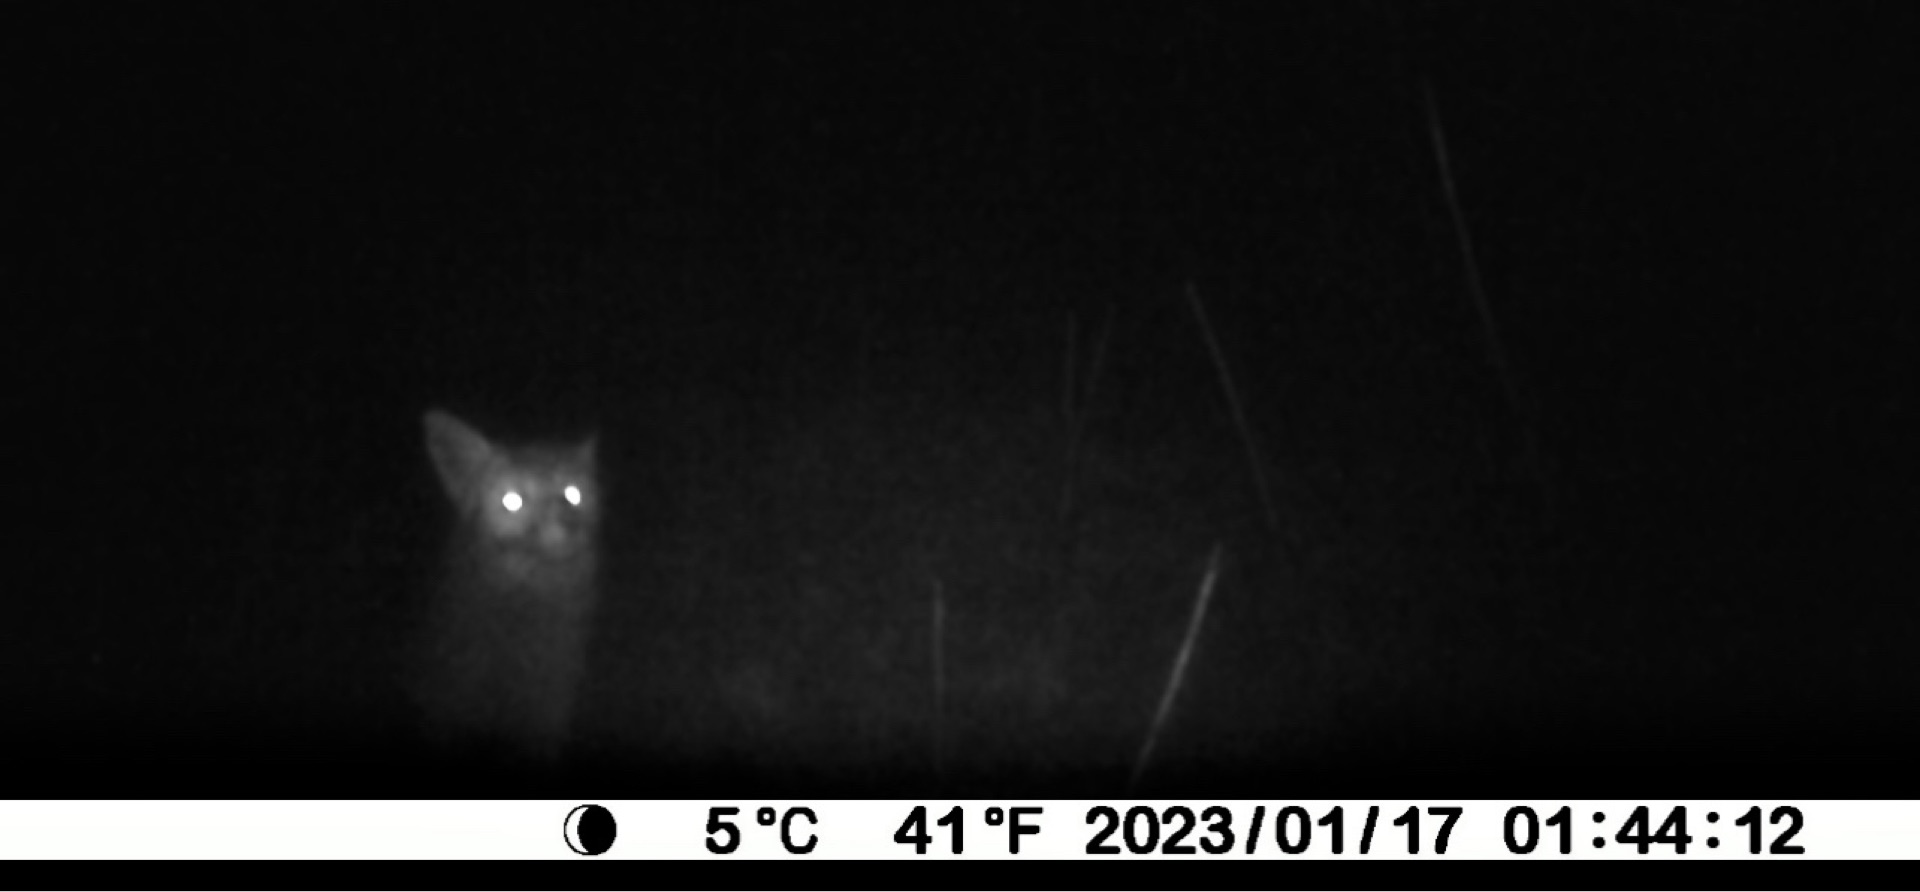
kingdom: Animalia
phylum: Chordata
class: Mammalia
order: Carnivora
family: Canidae
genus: Vulpes
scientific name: Vulpes vulpes
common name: Ræv
